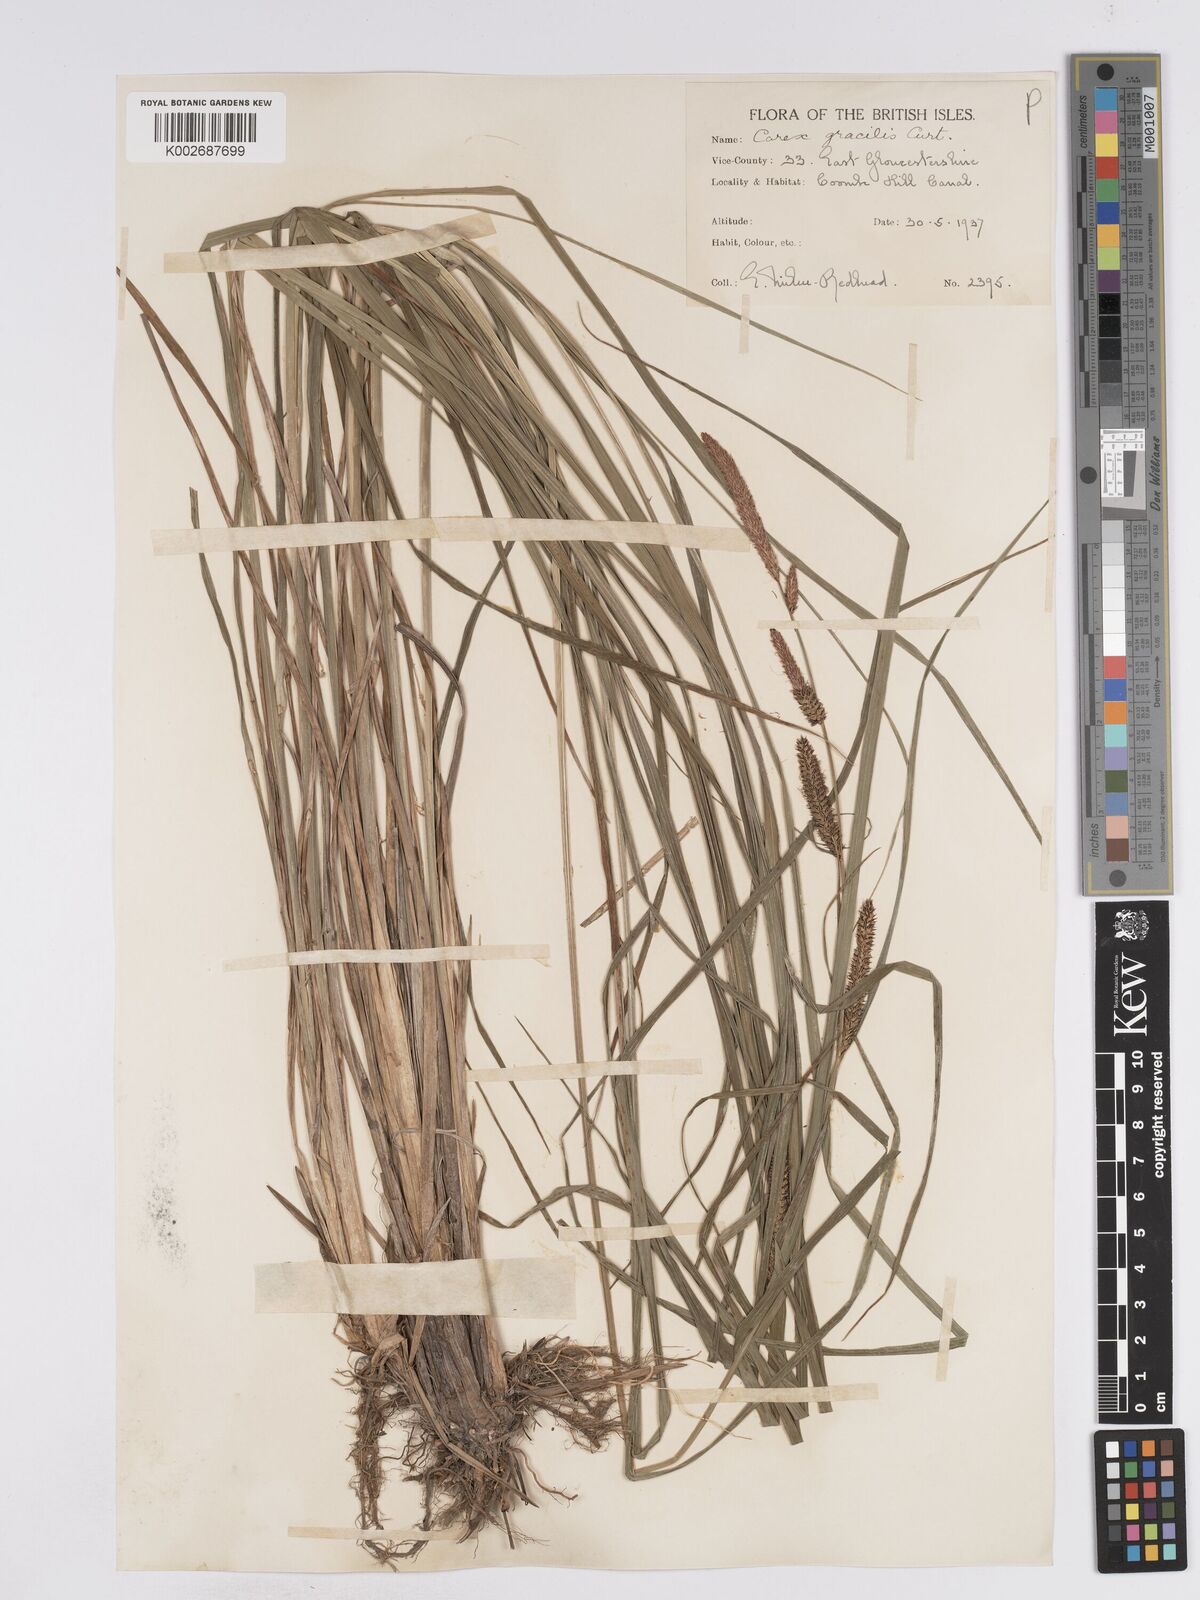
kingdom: Plantae
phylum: Tracheophyta
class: Liliopsida
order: Poales
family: Cyperaceae
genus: Carex
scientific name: Carex acuta
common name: Slender tufted-sedge
